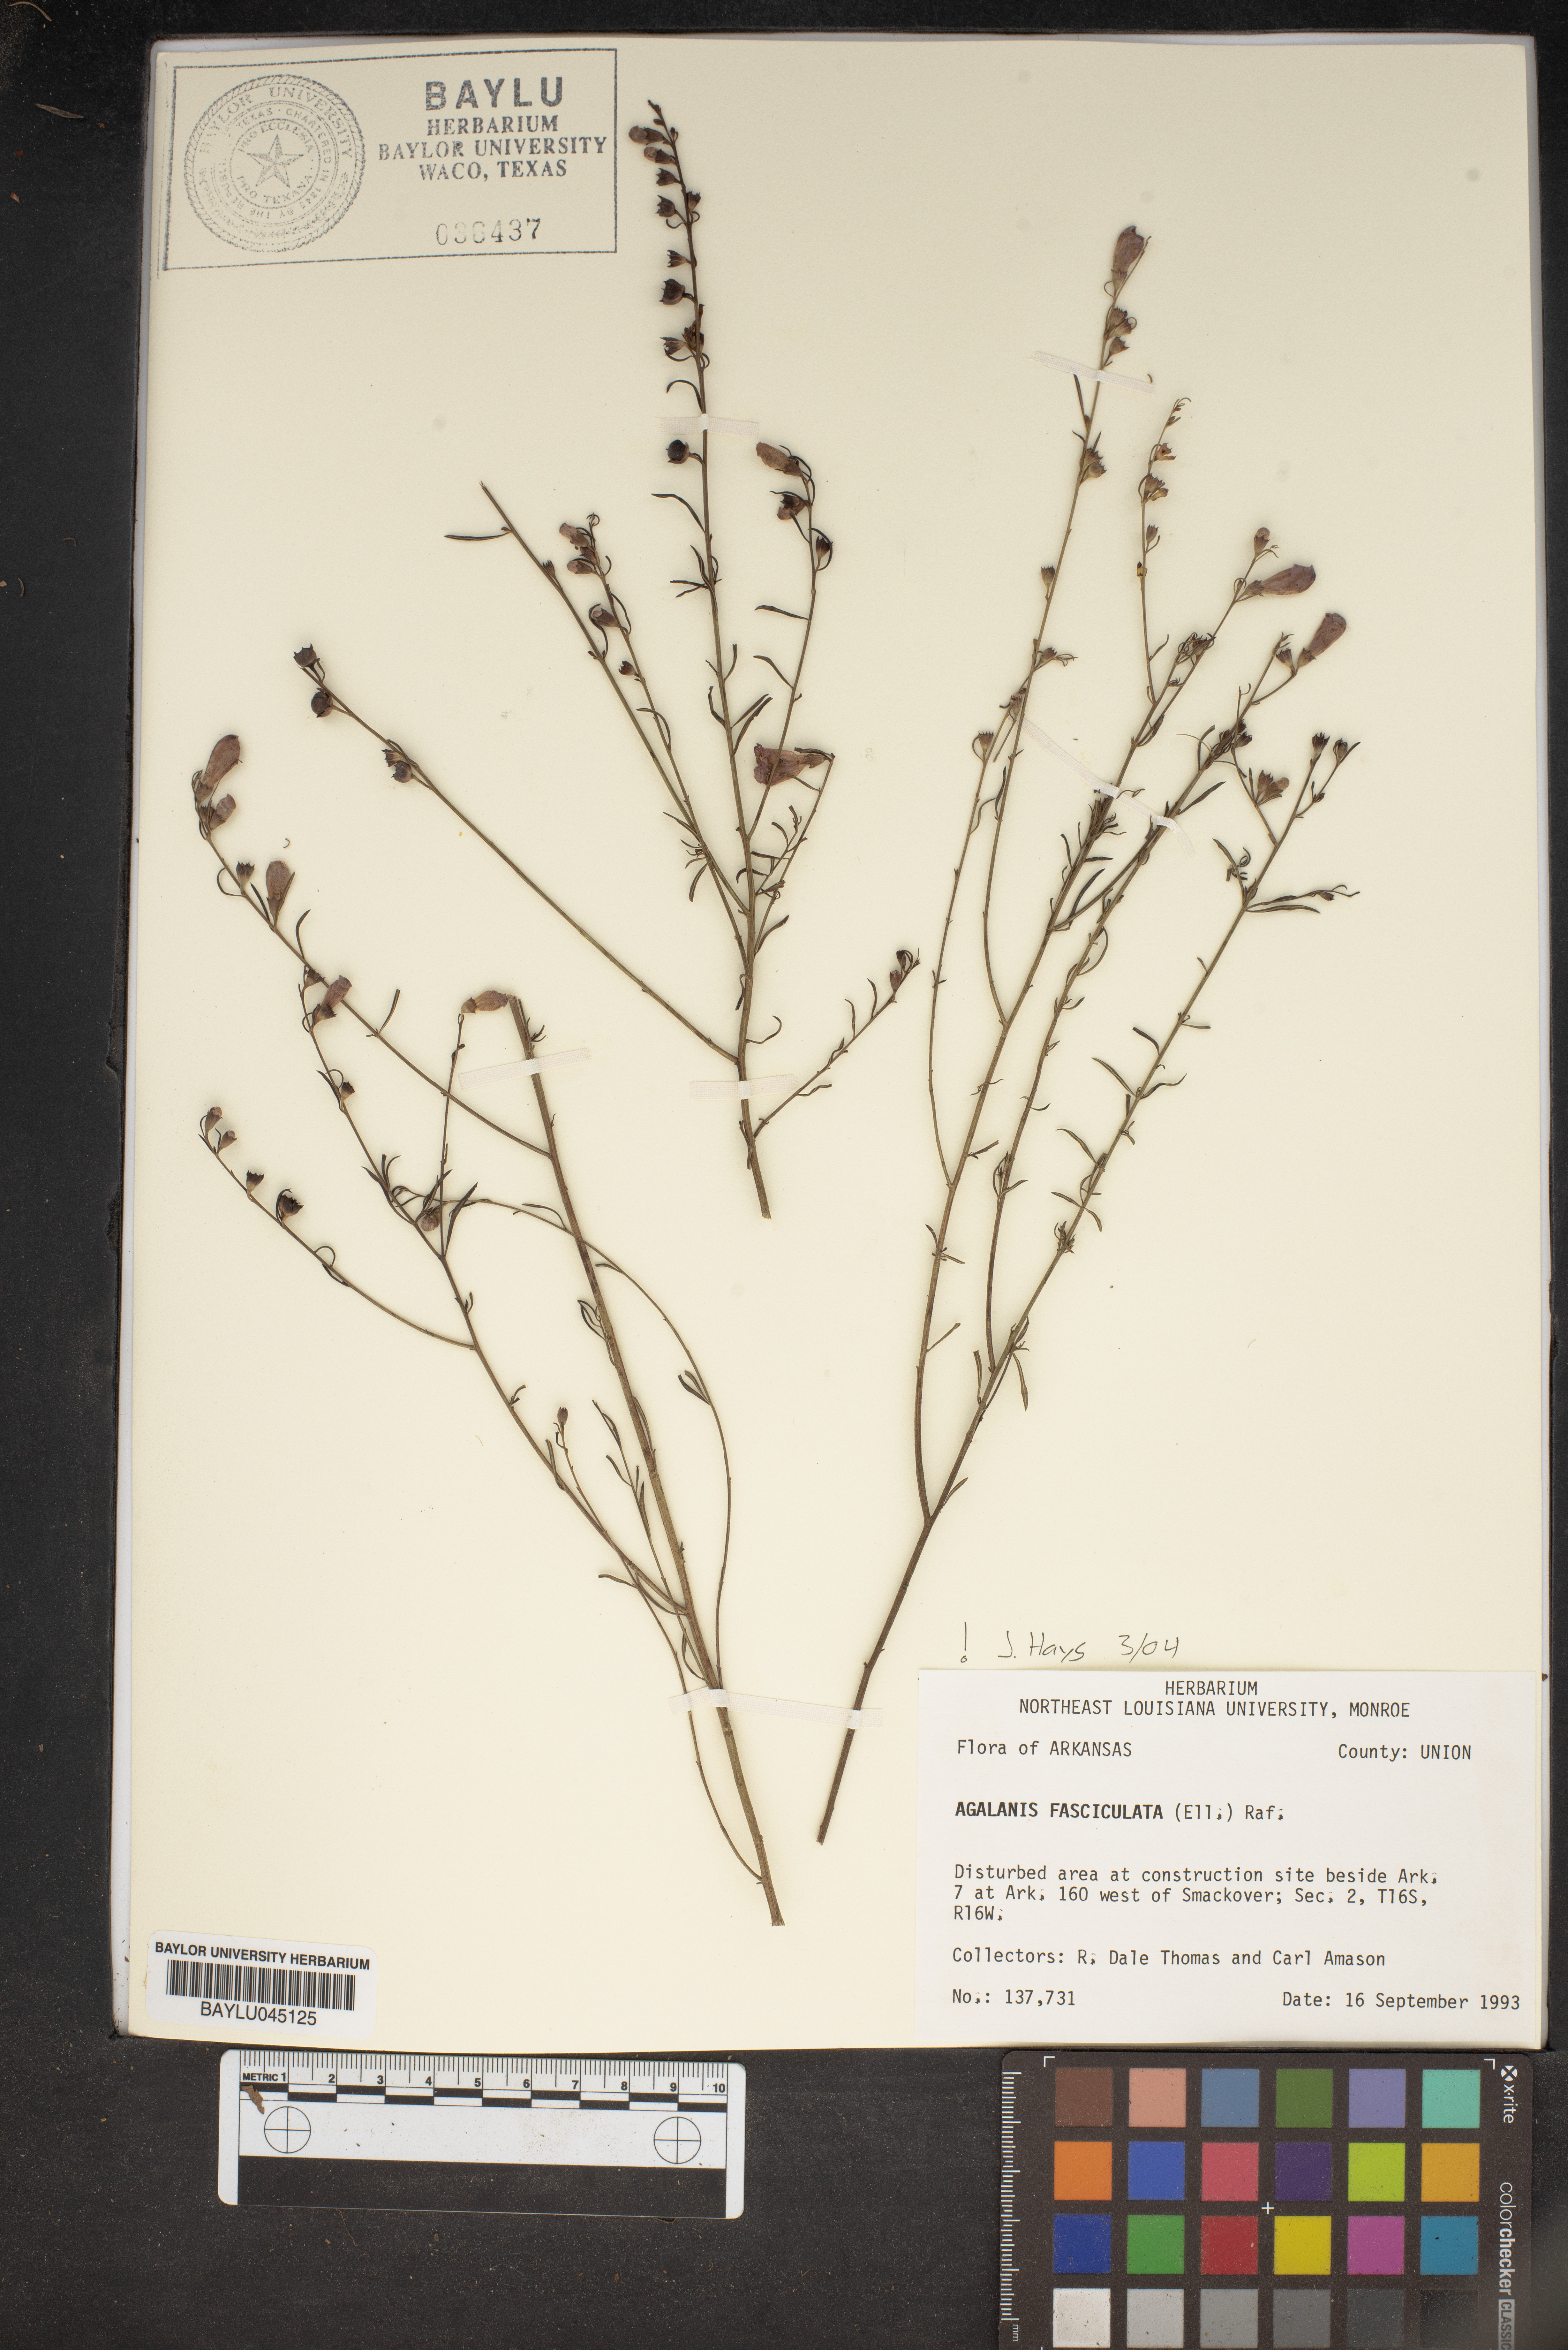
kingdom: Plantae
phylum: Tracheophyta
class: Magnoliopsida
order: Lamiales
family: Orobanchaceae
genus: Agalinis
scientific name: Agalinis fasciculata
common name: Beach false foxglove
